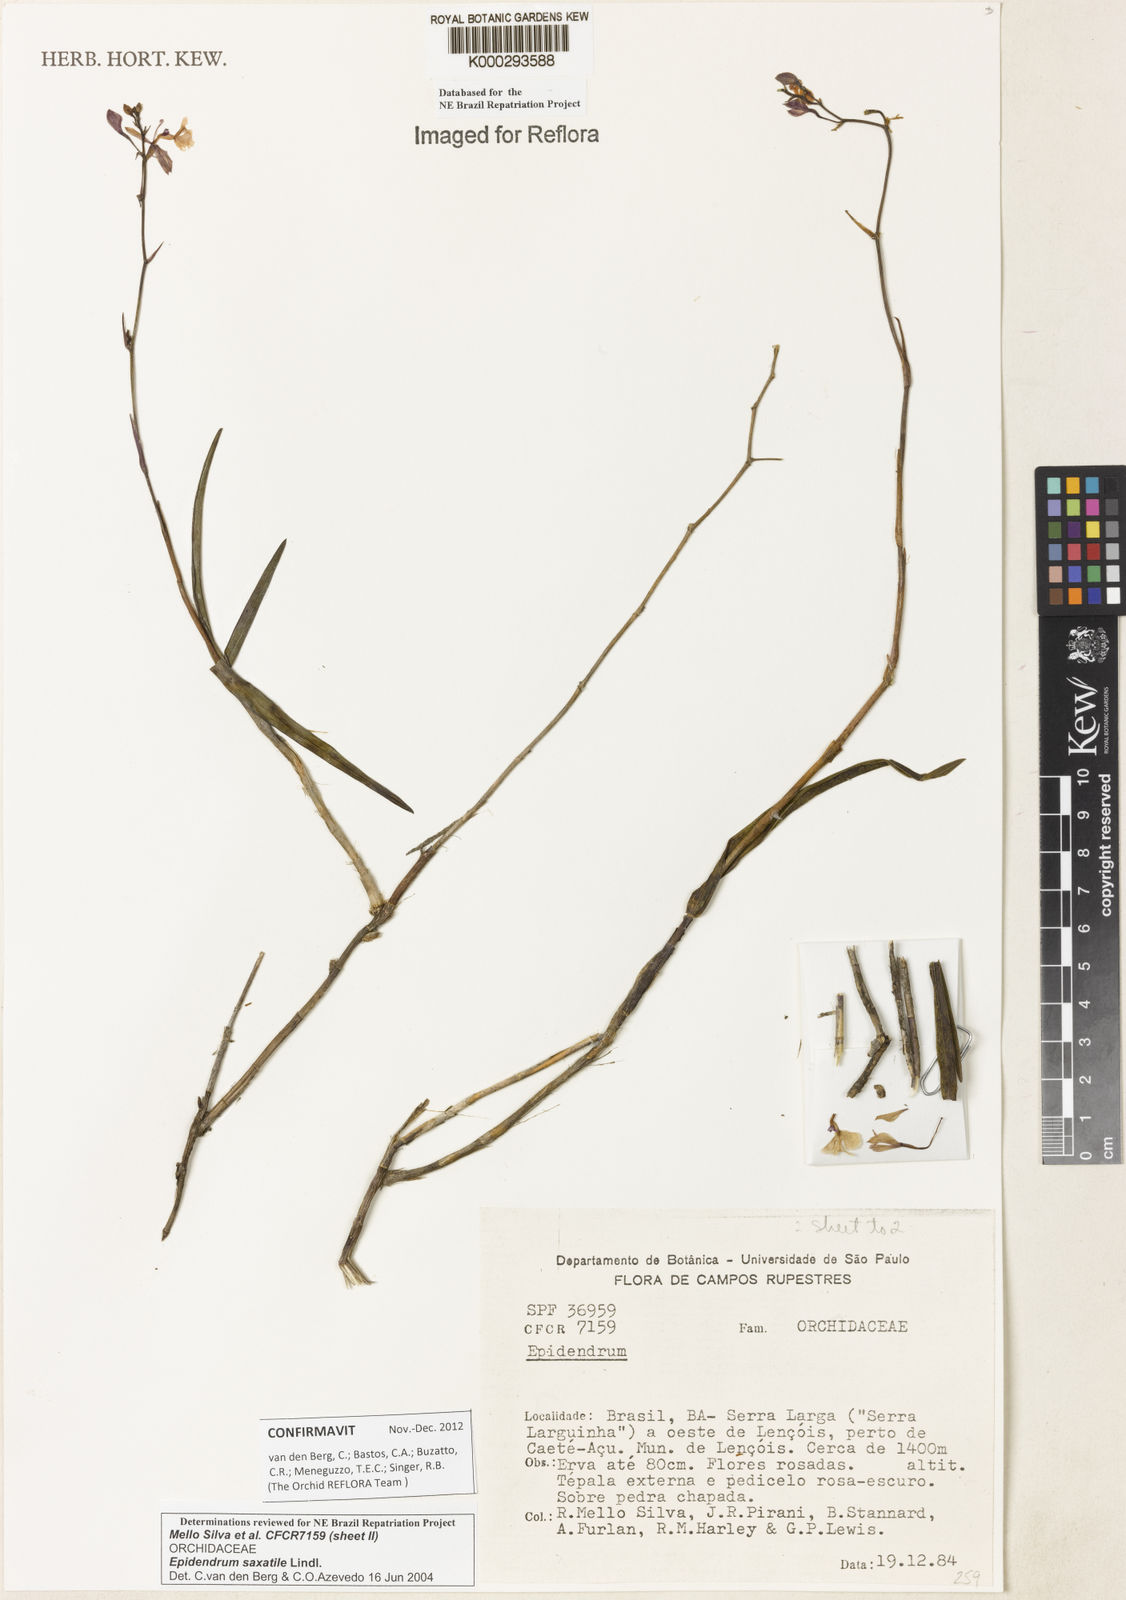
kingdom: Plantae
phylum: Tracheophyta
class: Liliopsida
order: Asparagales
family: Orchidaceae
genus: Epidendrum
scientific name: Epidendrum saxatile
